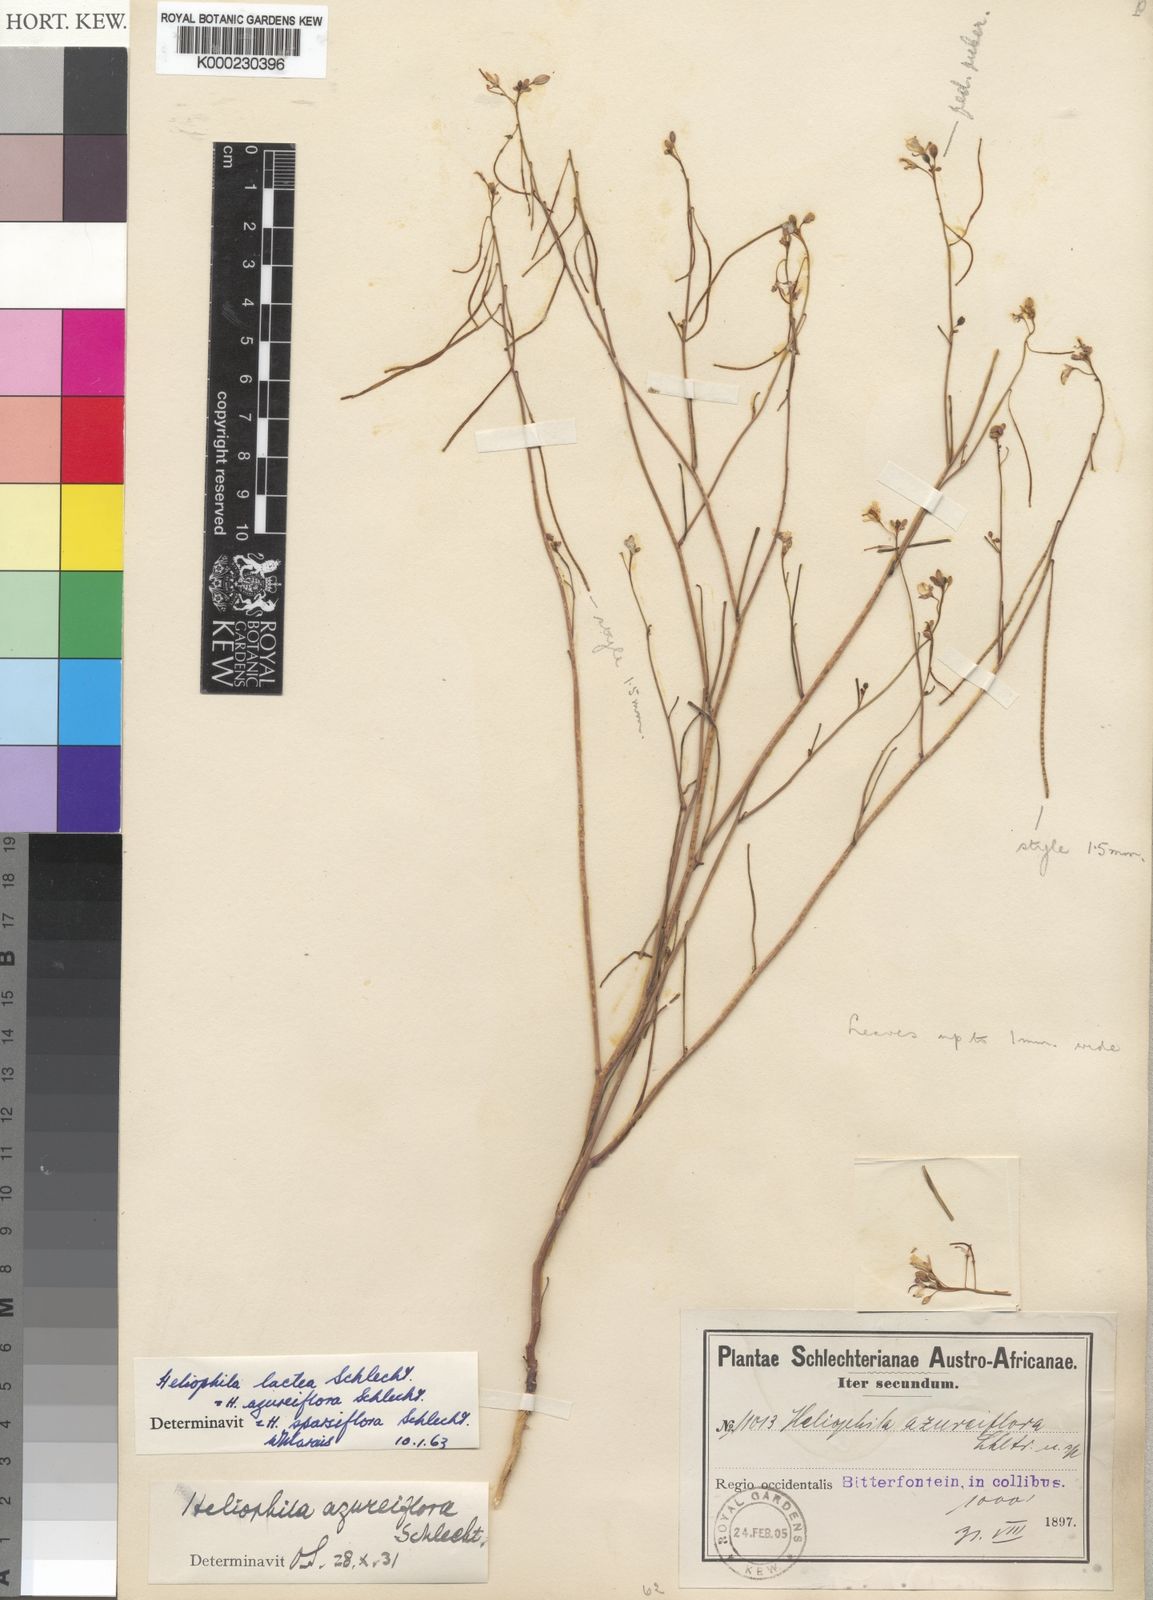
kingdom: Plantae
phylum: Tracheophyta
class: Magnoliopsida
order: Brassicales
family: Brassicaceae
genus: Heliophila
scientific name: Heliophila lactea
